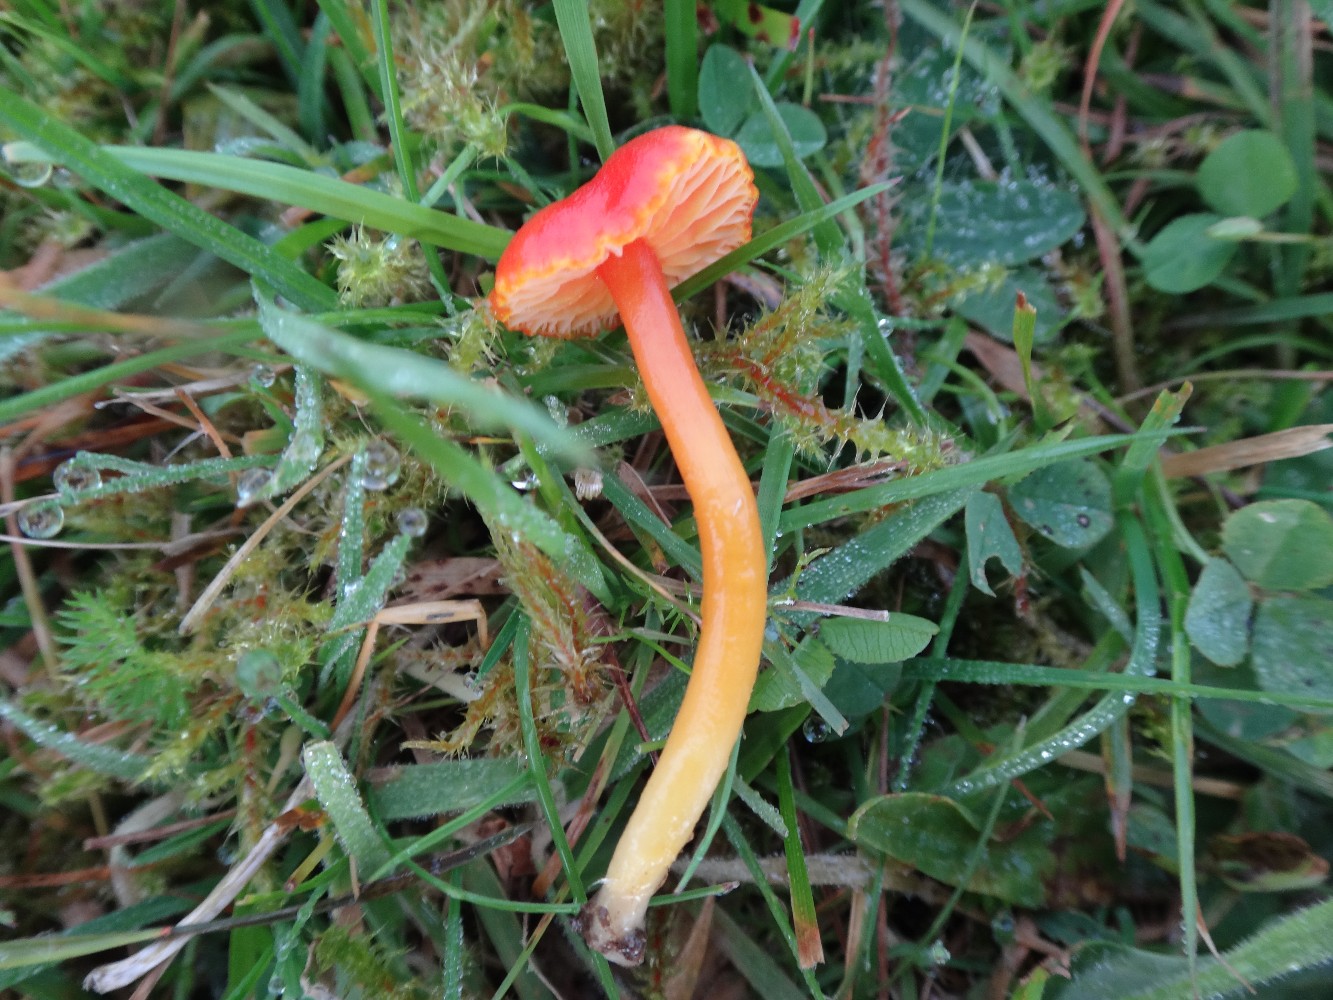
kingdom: Fungi
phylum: Basidiomycota
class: Agaricomycetes
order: Agaricales
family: Hygrophoraceae
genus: Hygrocybe
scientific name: Hygrocybe miniata
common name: mønje-vokshat
